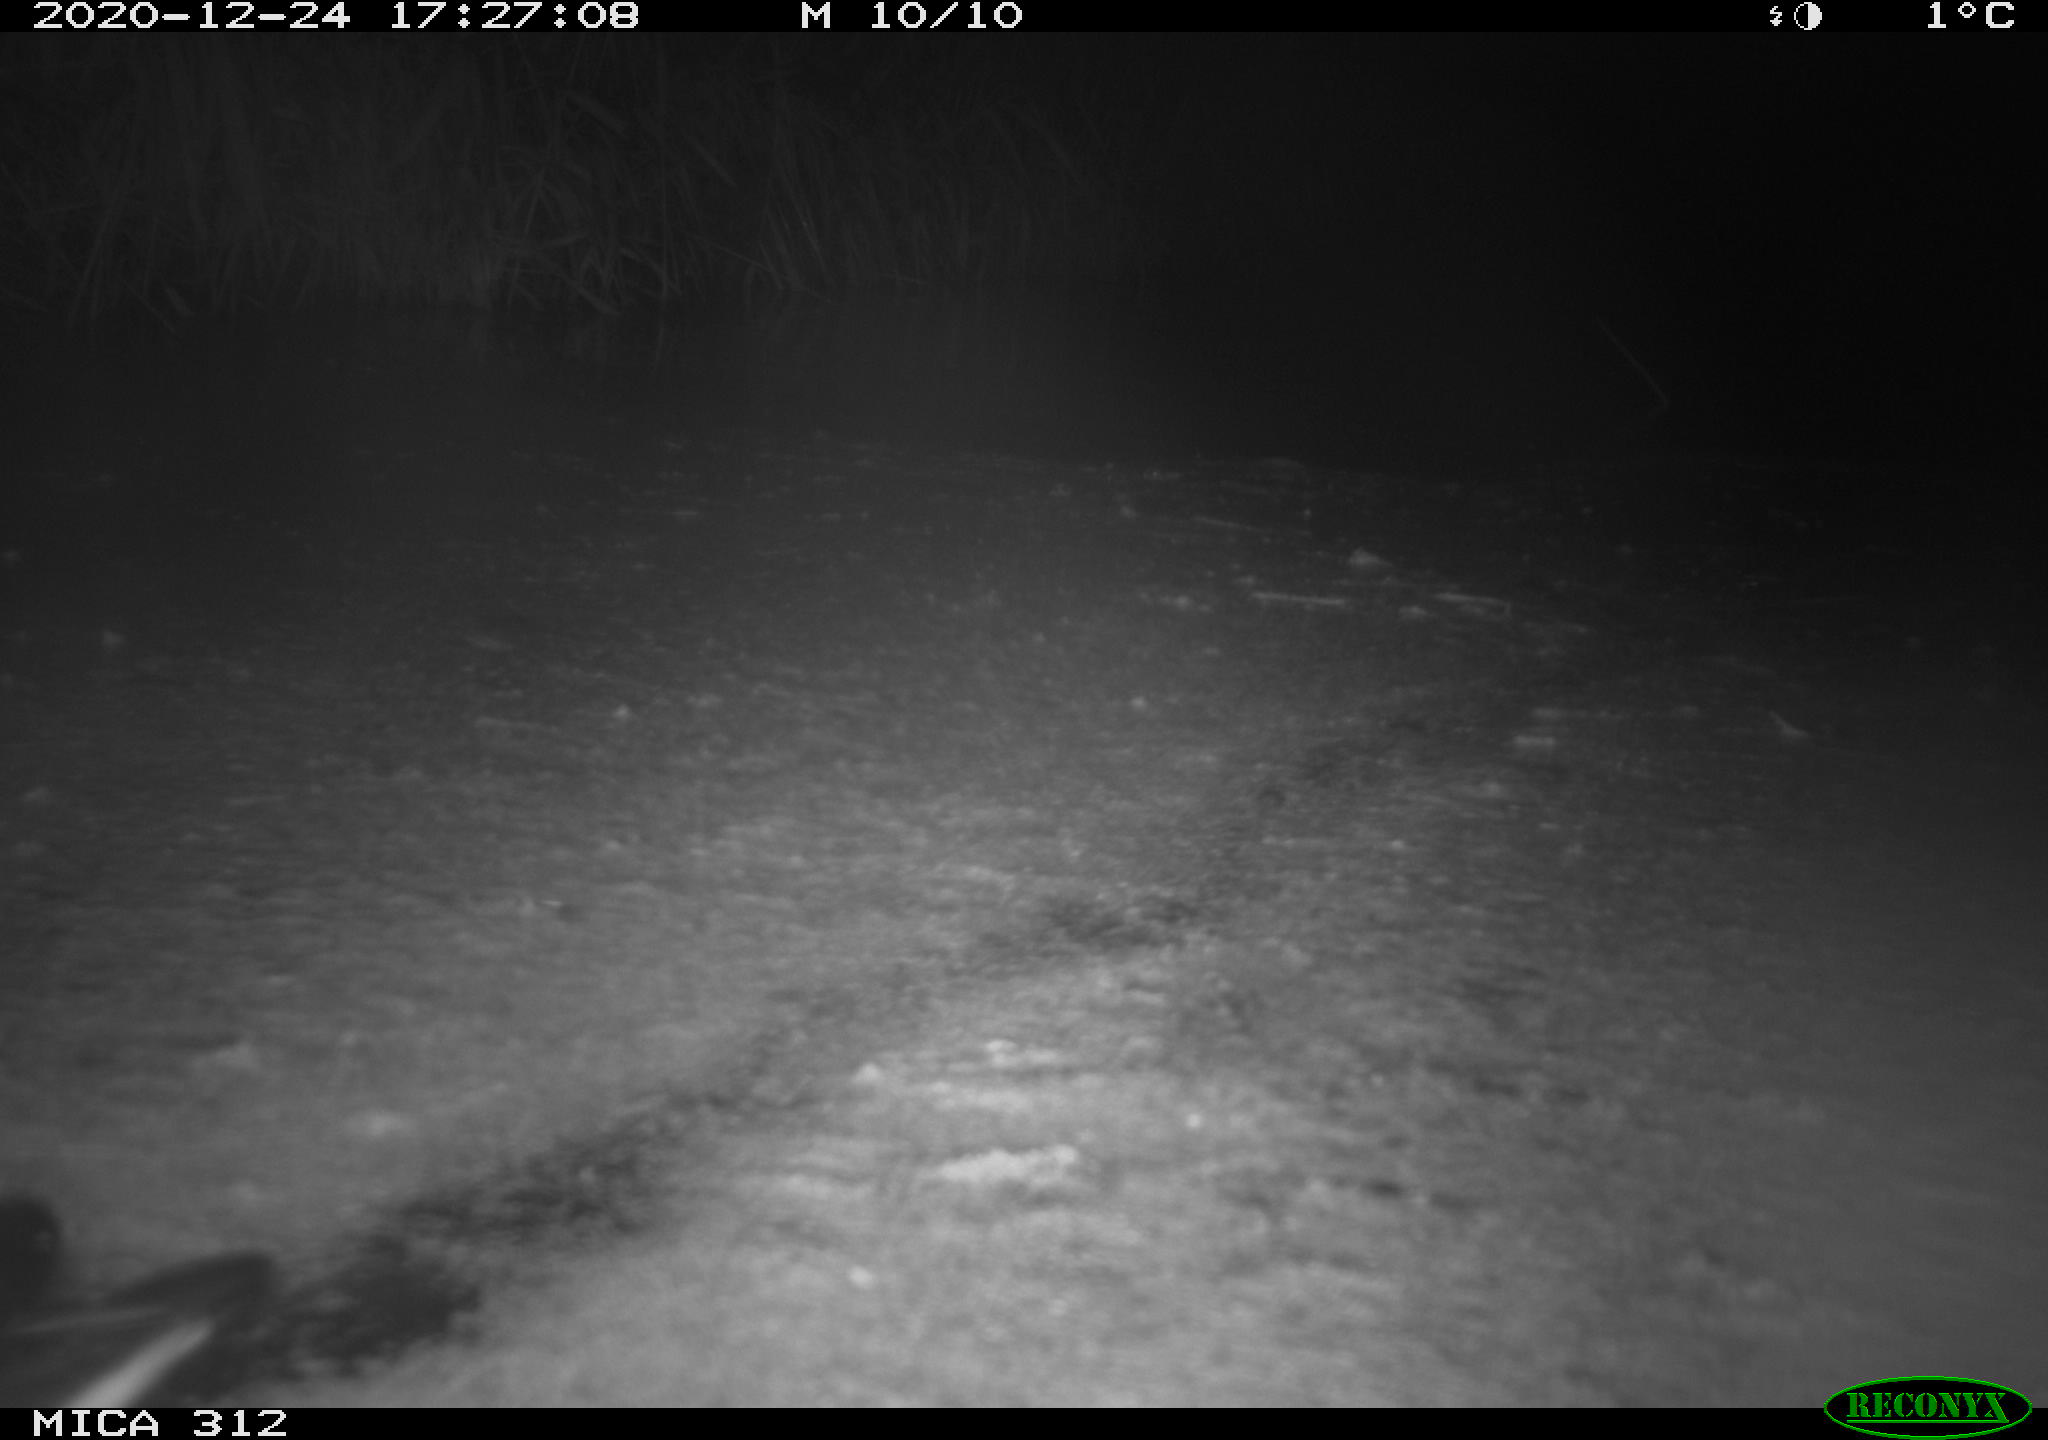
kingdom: Animalia
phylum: Chordata
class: Aves
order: Gruiformes
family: Rallidae
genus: Gallinula
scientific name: Gallinula chloropus
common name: Common moorhen
